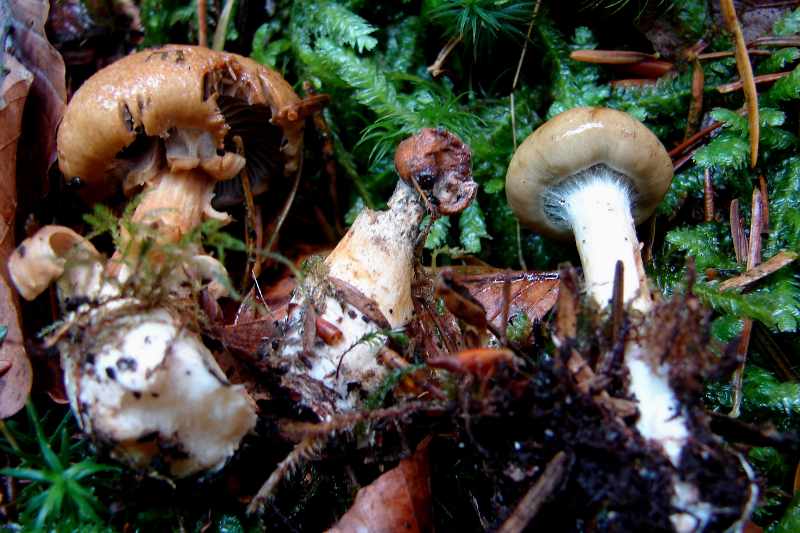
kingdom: Fungi
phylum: Basidiomycota
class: Agaricomycetes
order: Agaricales
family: Cortinariaceae
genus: Cortinarius
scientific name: Cortinarius subtortus
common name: olivengul slørhat
